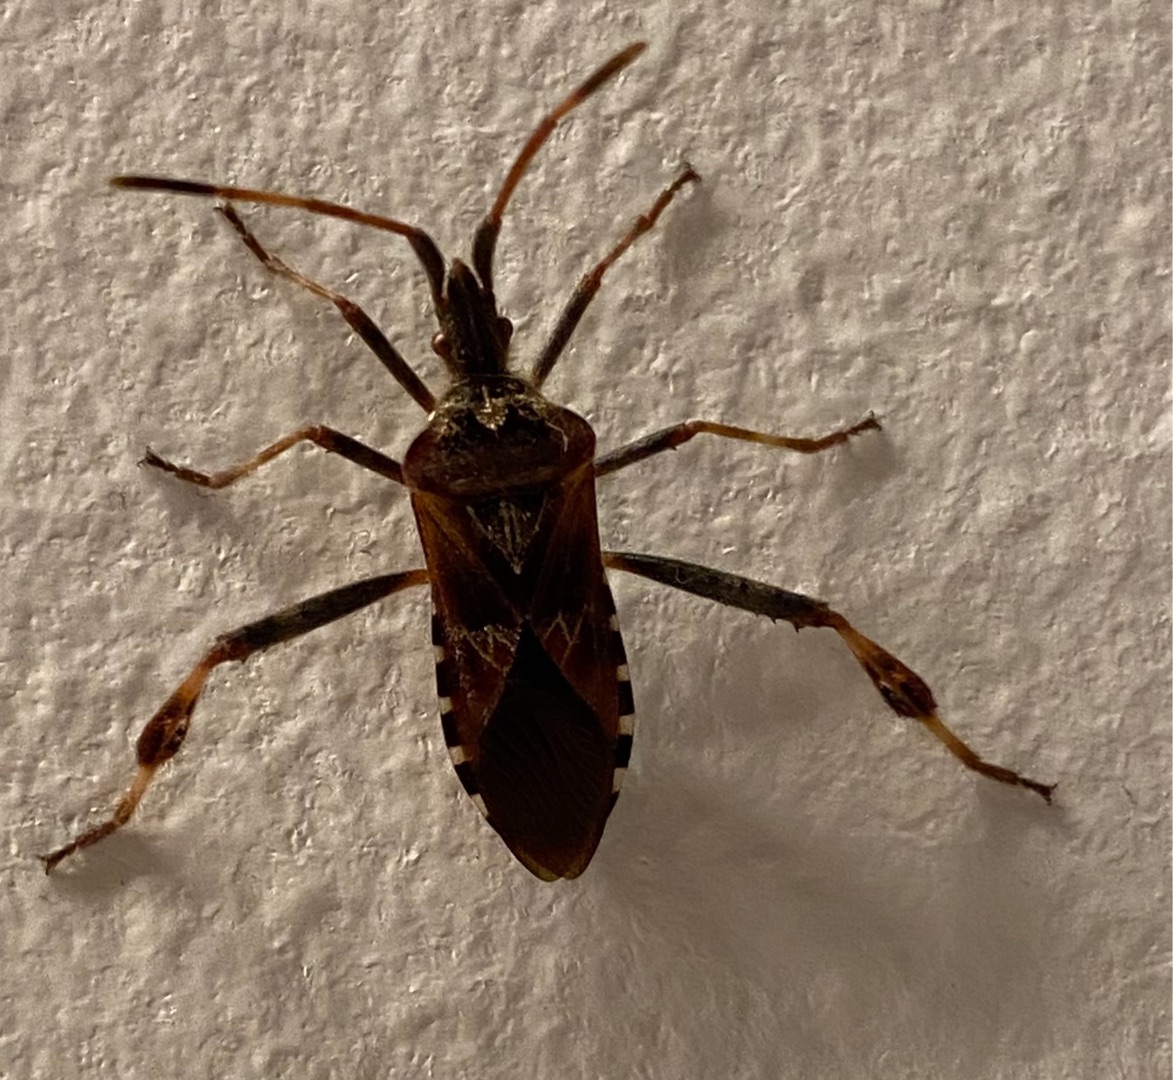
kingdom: Animalia
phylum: Arthropoda
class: Insecta
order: Hemiptera
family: Coreidae
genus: Leptoglossus
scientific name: Leptoglossus occidentalis
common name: Amerikansk fyrretæge
